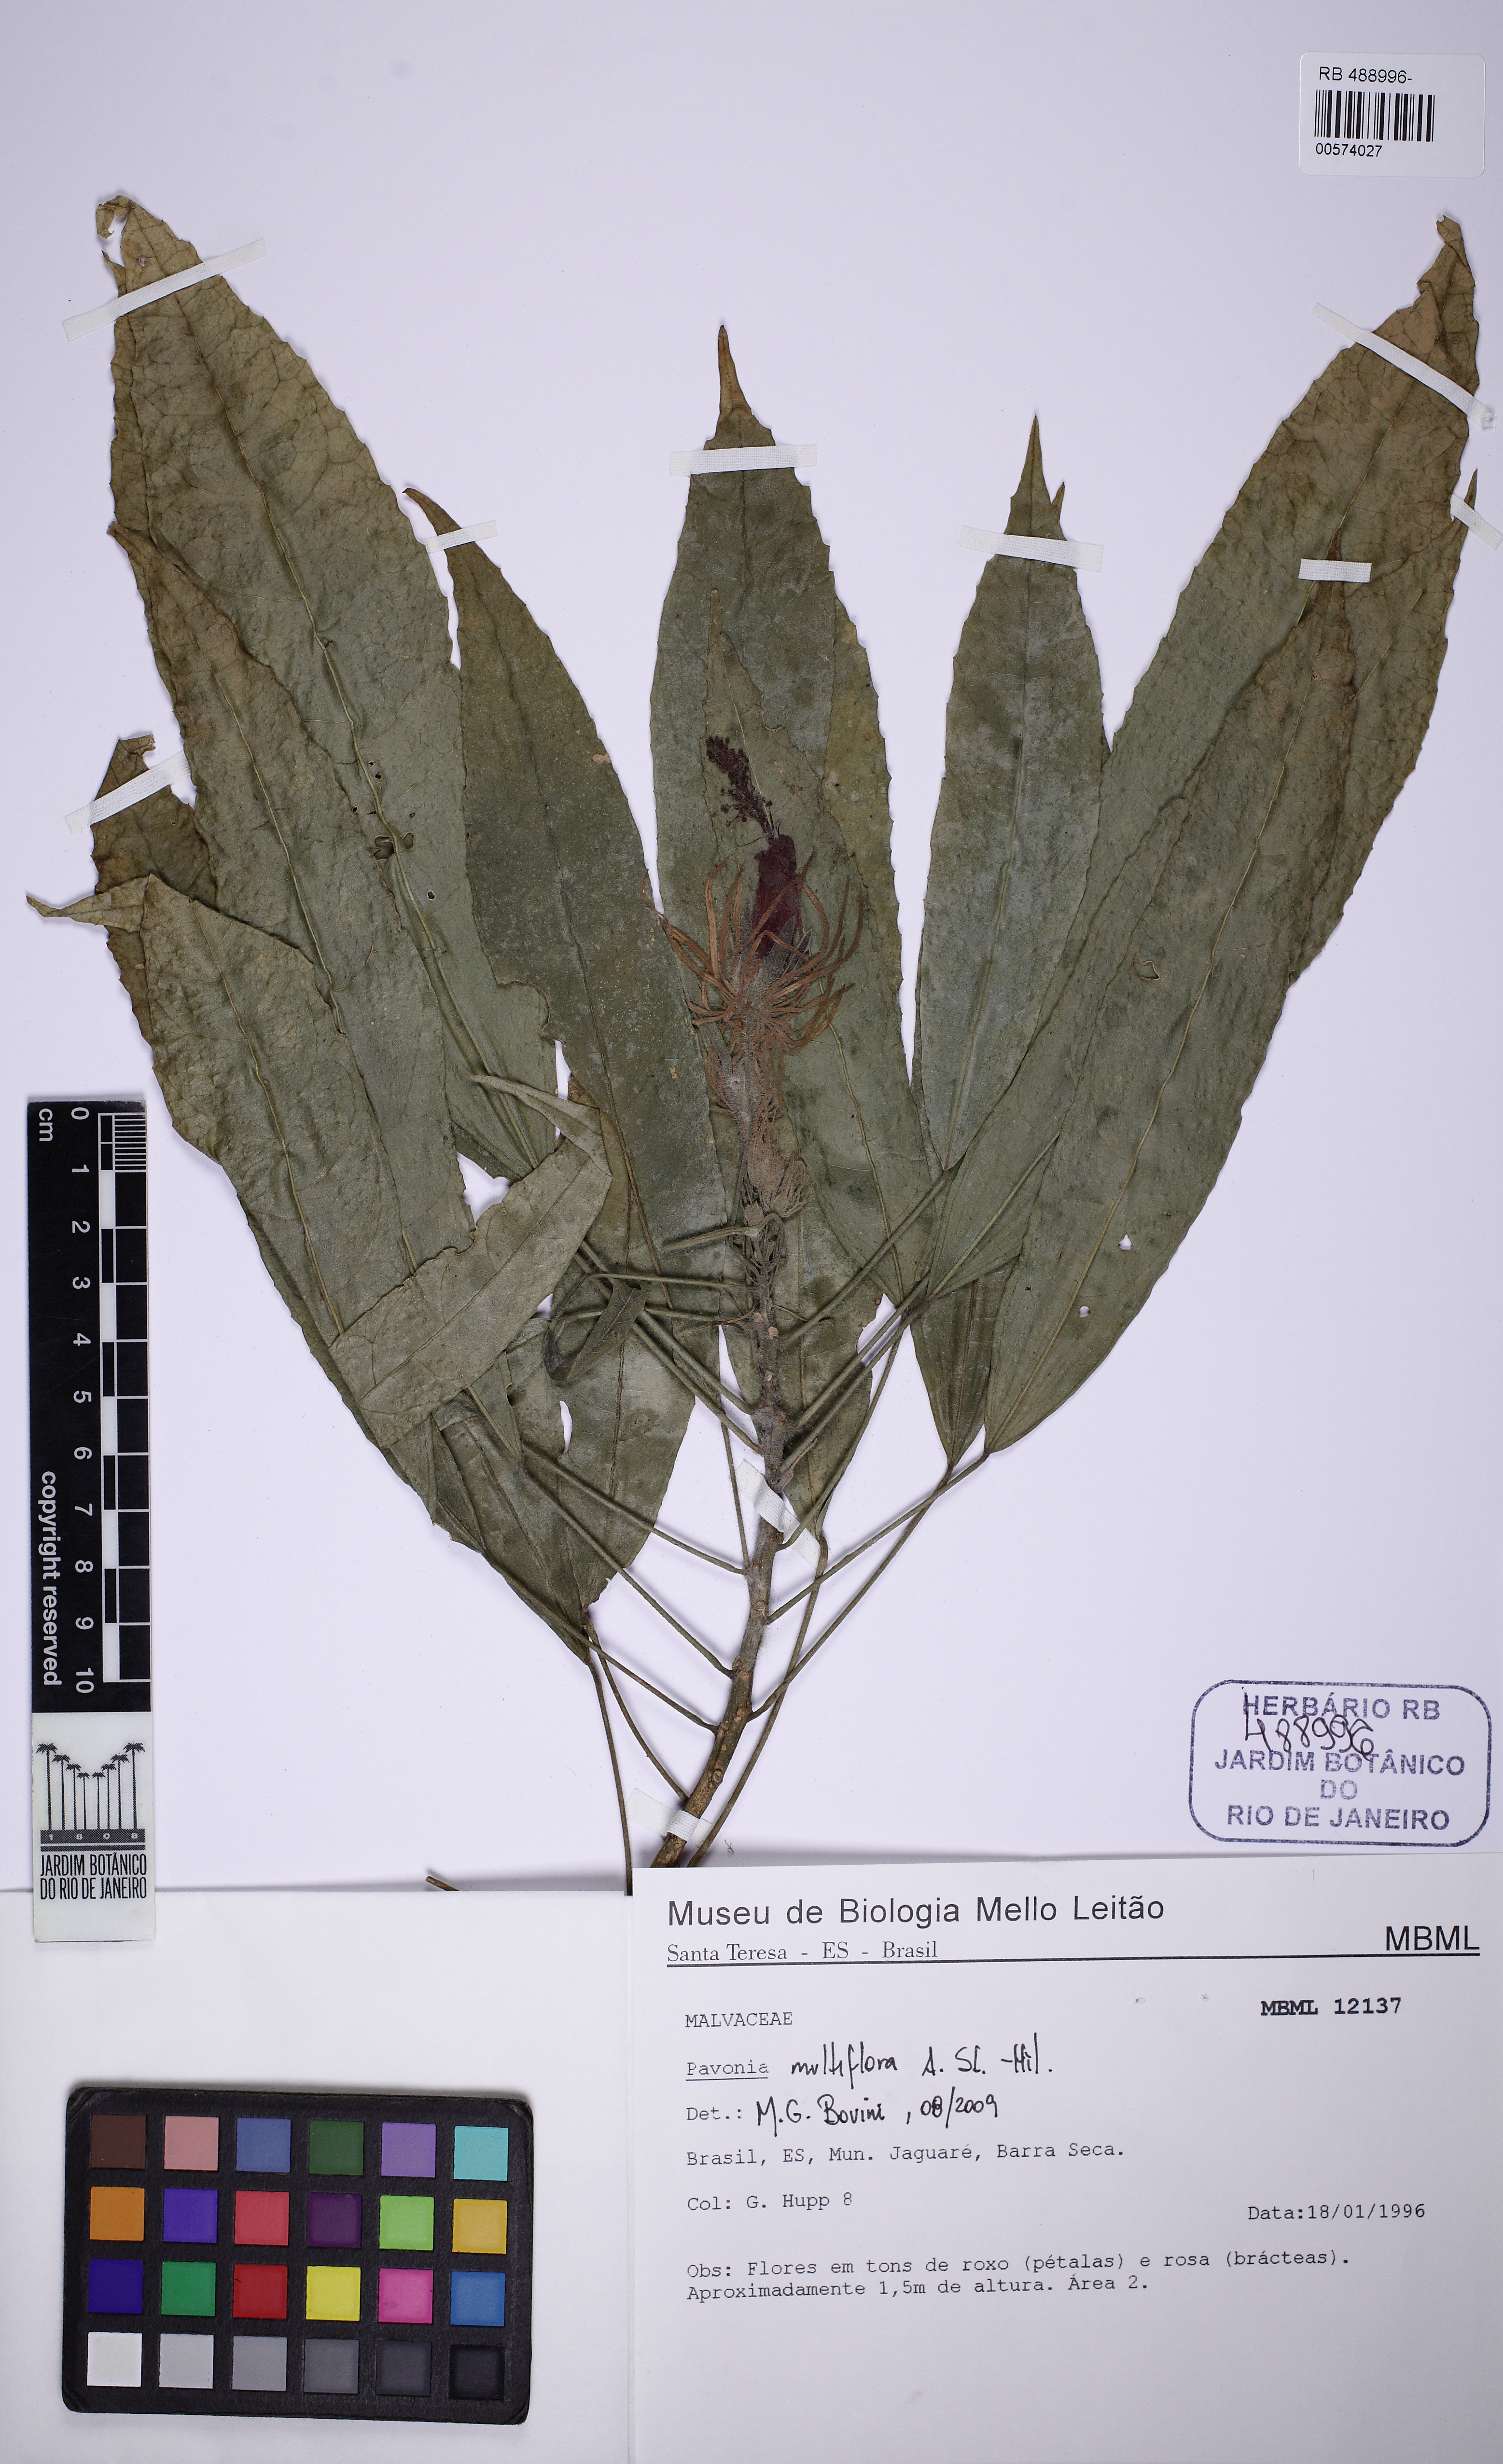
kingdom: Plantae
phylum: Tracheophyta
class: Magnoliopsida
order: Malvales
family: Malvaceae
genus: Pavonia
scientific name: Pavonia multiflora
